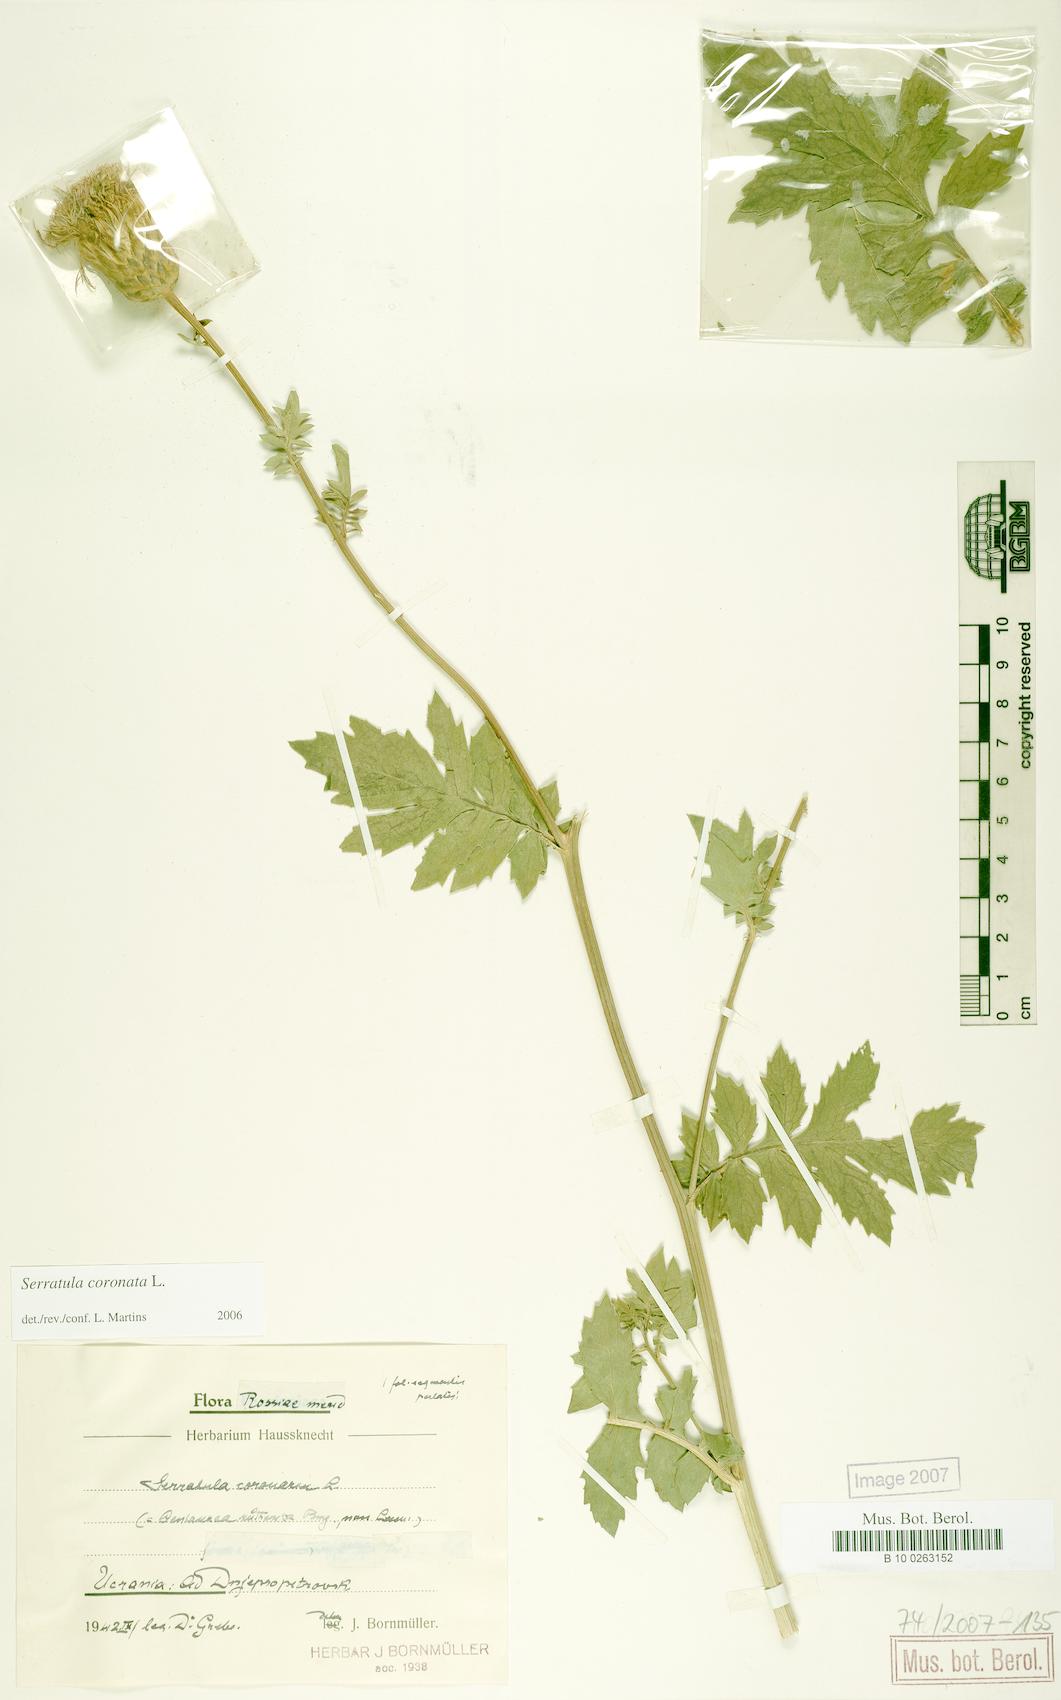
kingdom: Plantae
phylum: Tracheophyta
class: Magnoliopsida
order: Asterales
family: Asteraceae
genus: Serratula
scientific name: Serratula coronata
